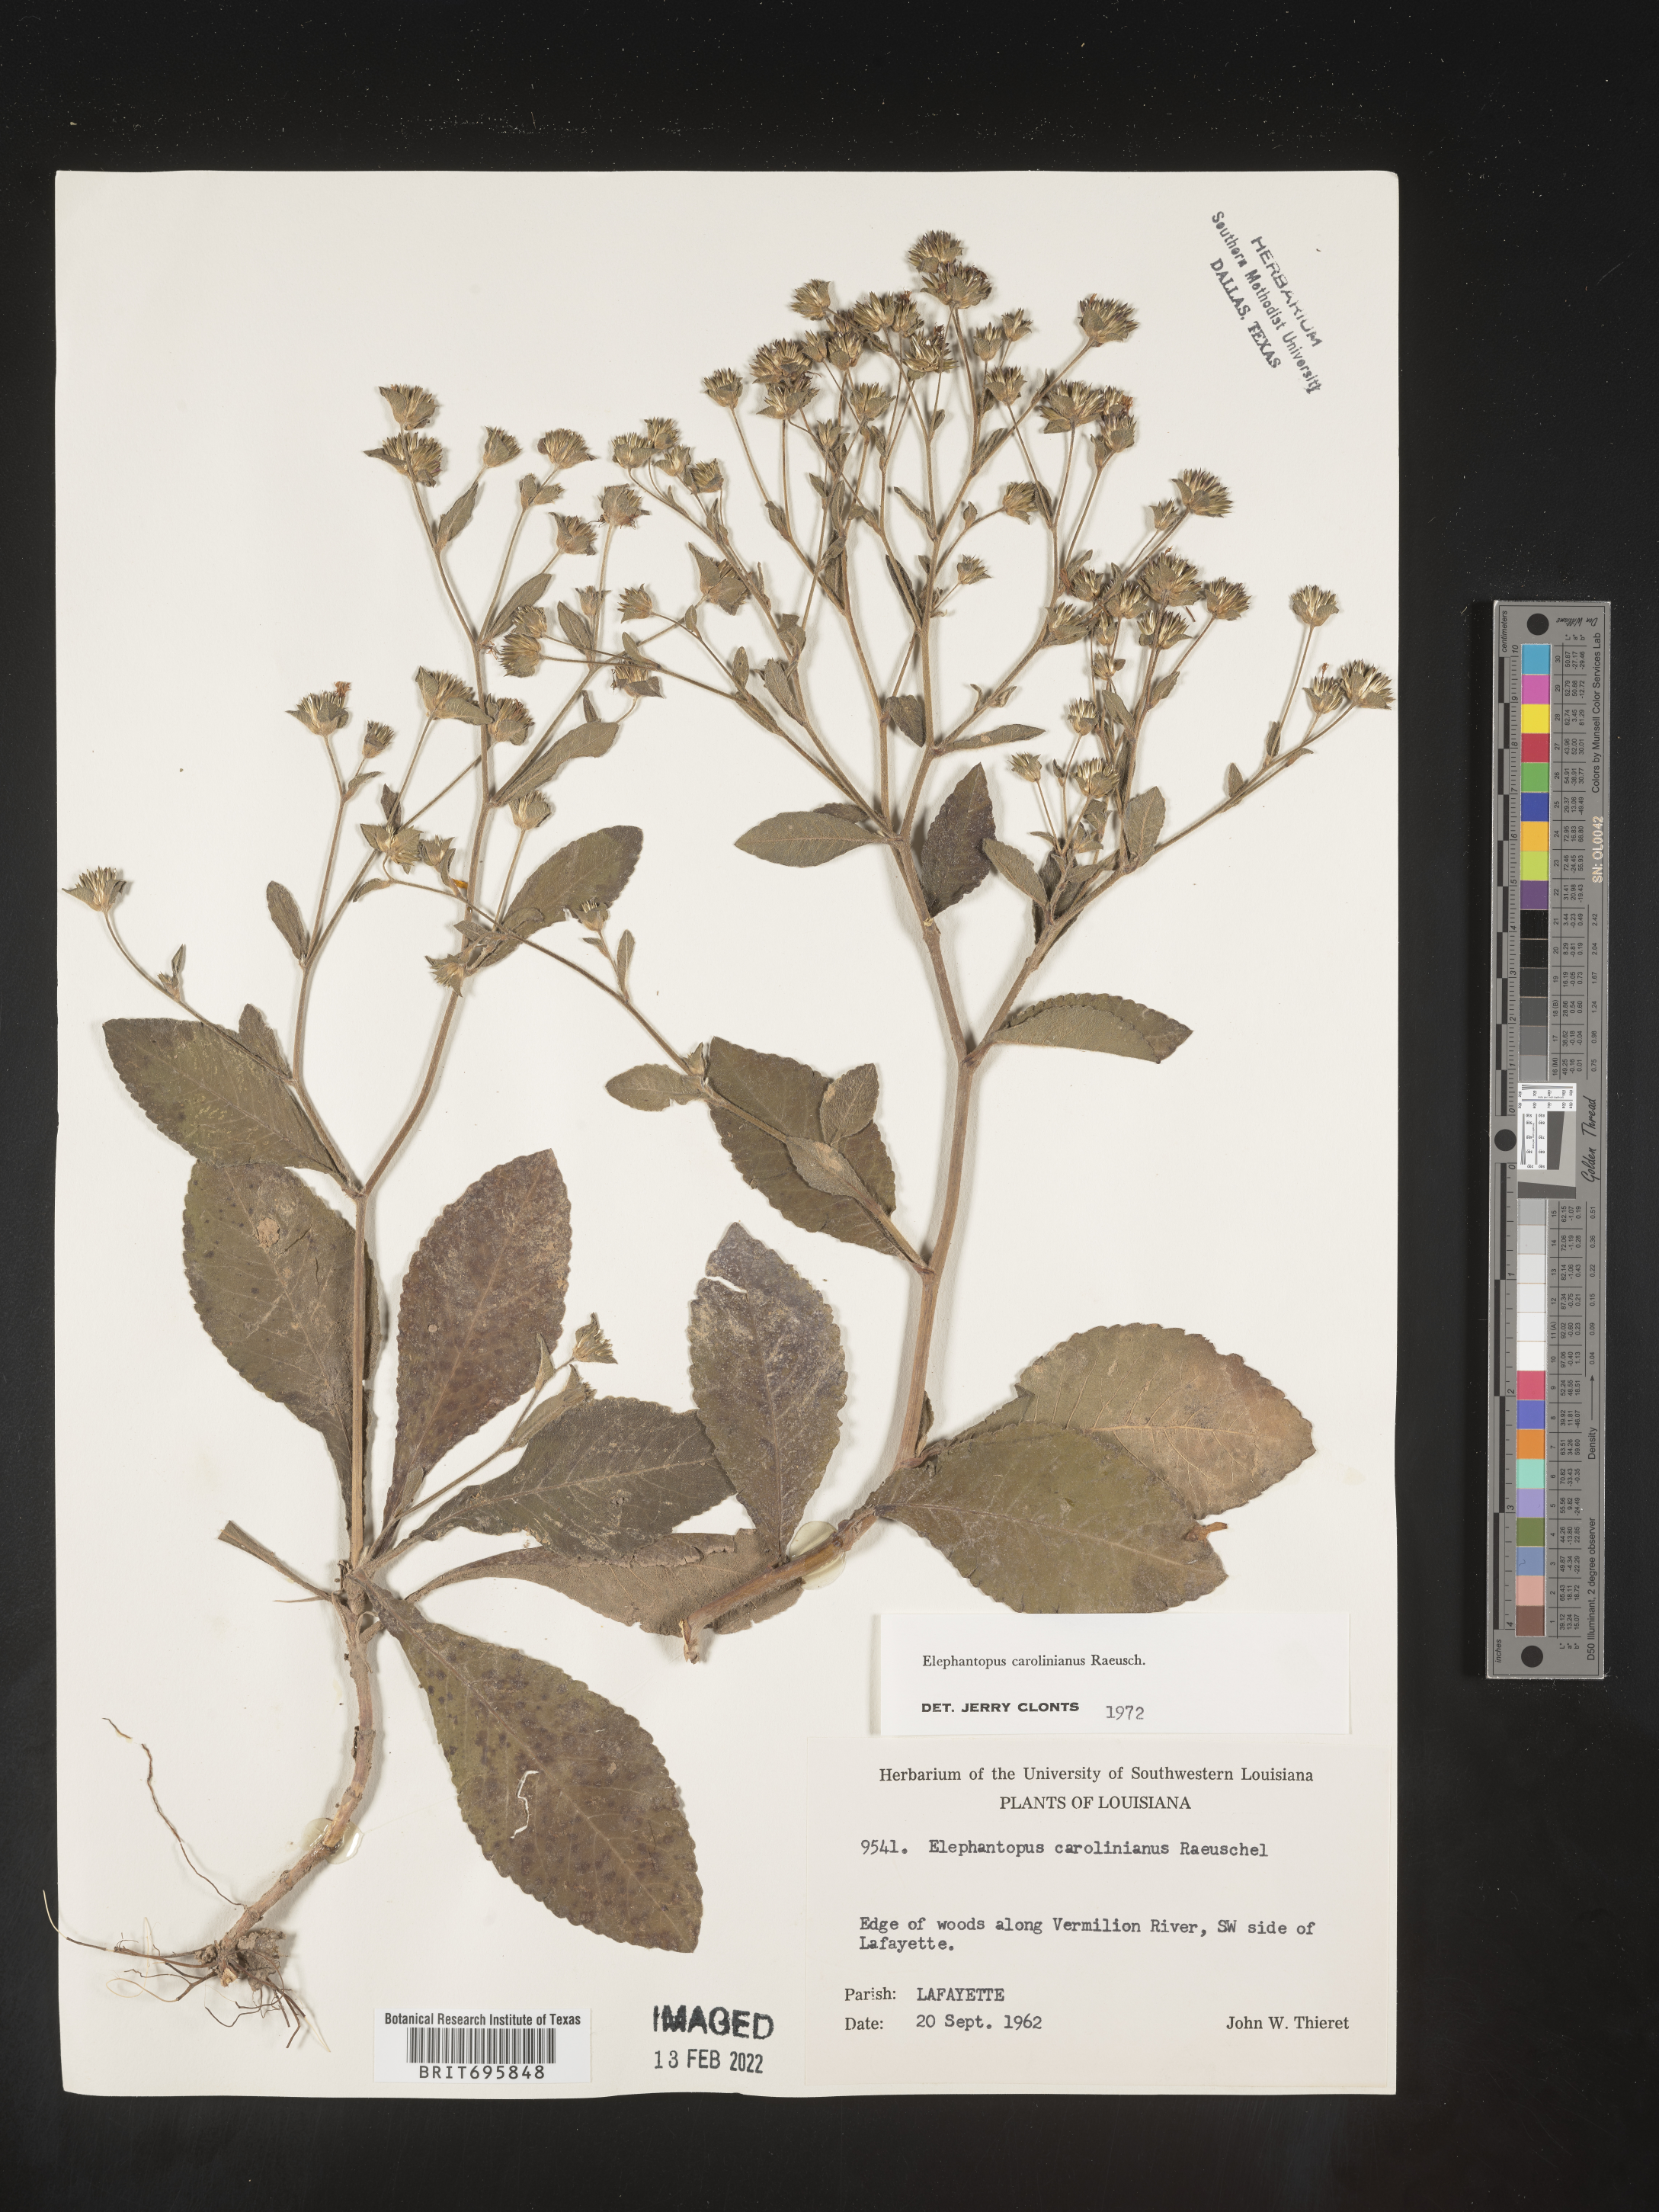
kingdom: Plantae
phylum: Tracheophyta
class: Magnoliopsida
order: Asterales
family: Asteraceae
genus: Elephantopus
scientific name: Elephantopus carolinianus
